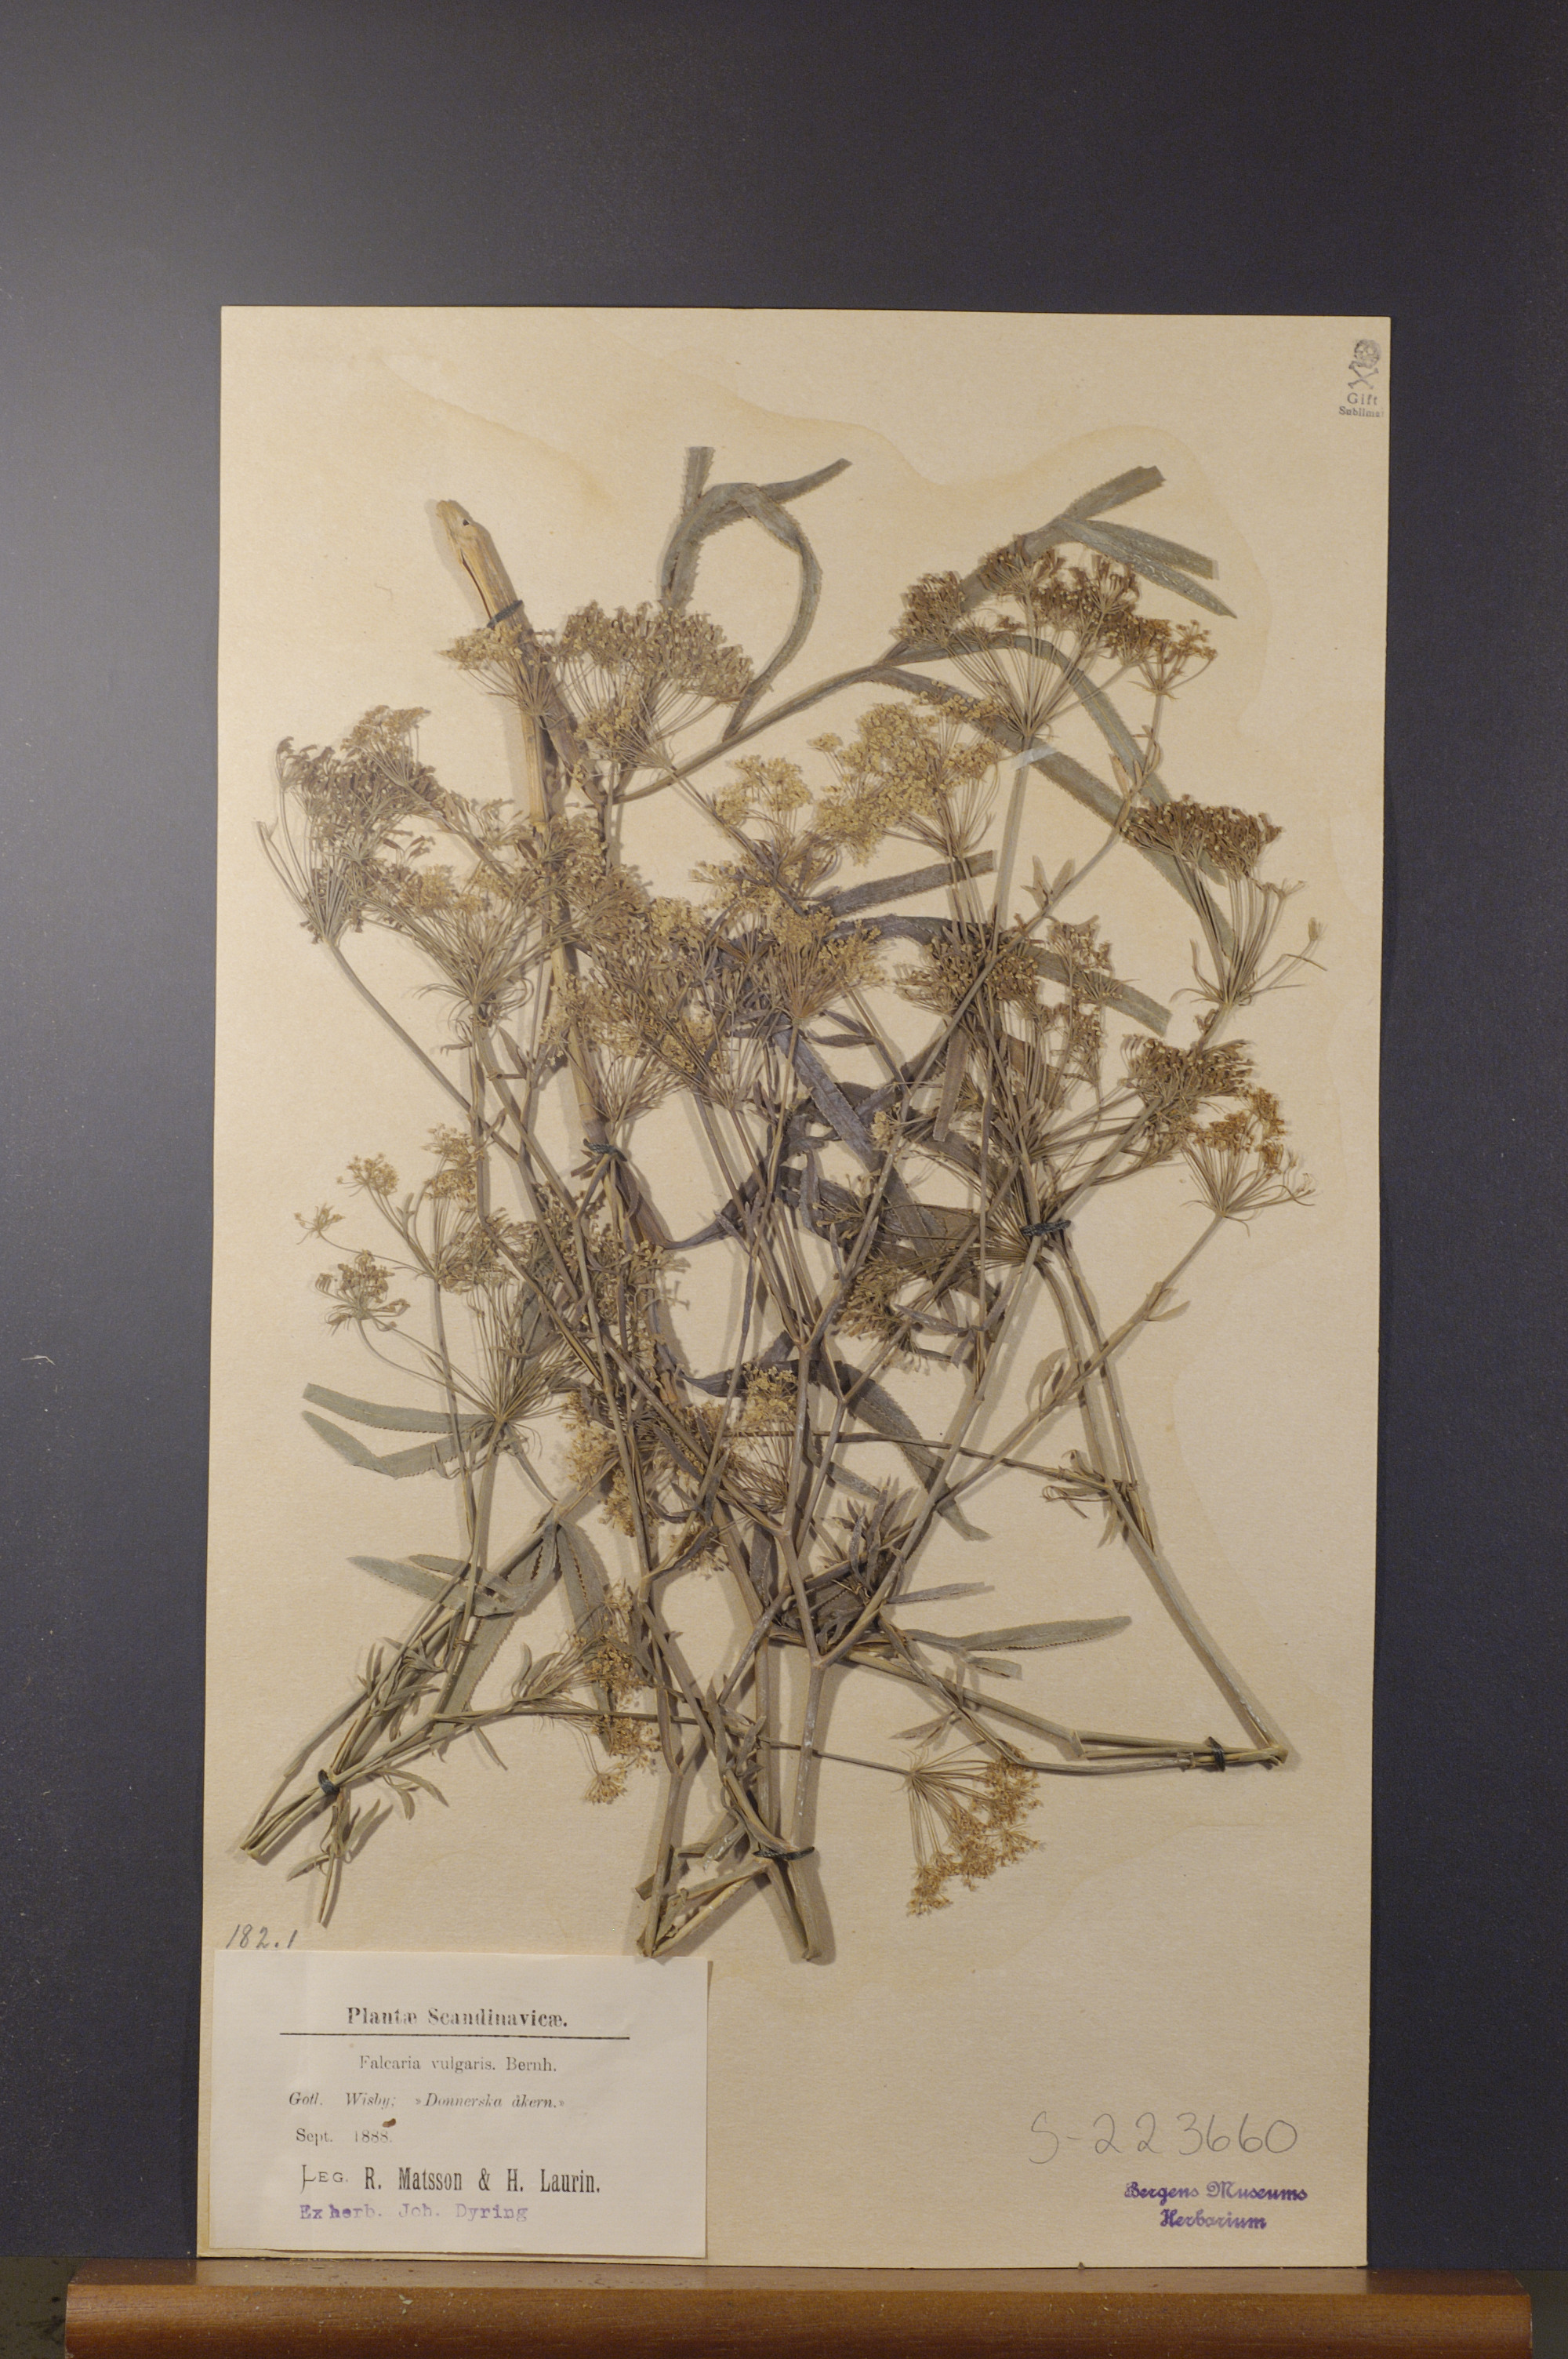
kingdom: Plantae
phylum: Tracheophyta
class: Magnoliopsida
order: Apiales
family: Apiaceae
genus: Falcaria
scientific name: Falcaria vulgaris
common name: Longleaf
